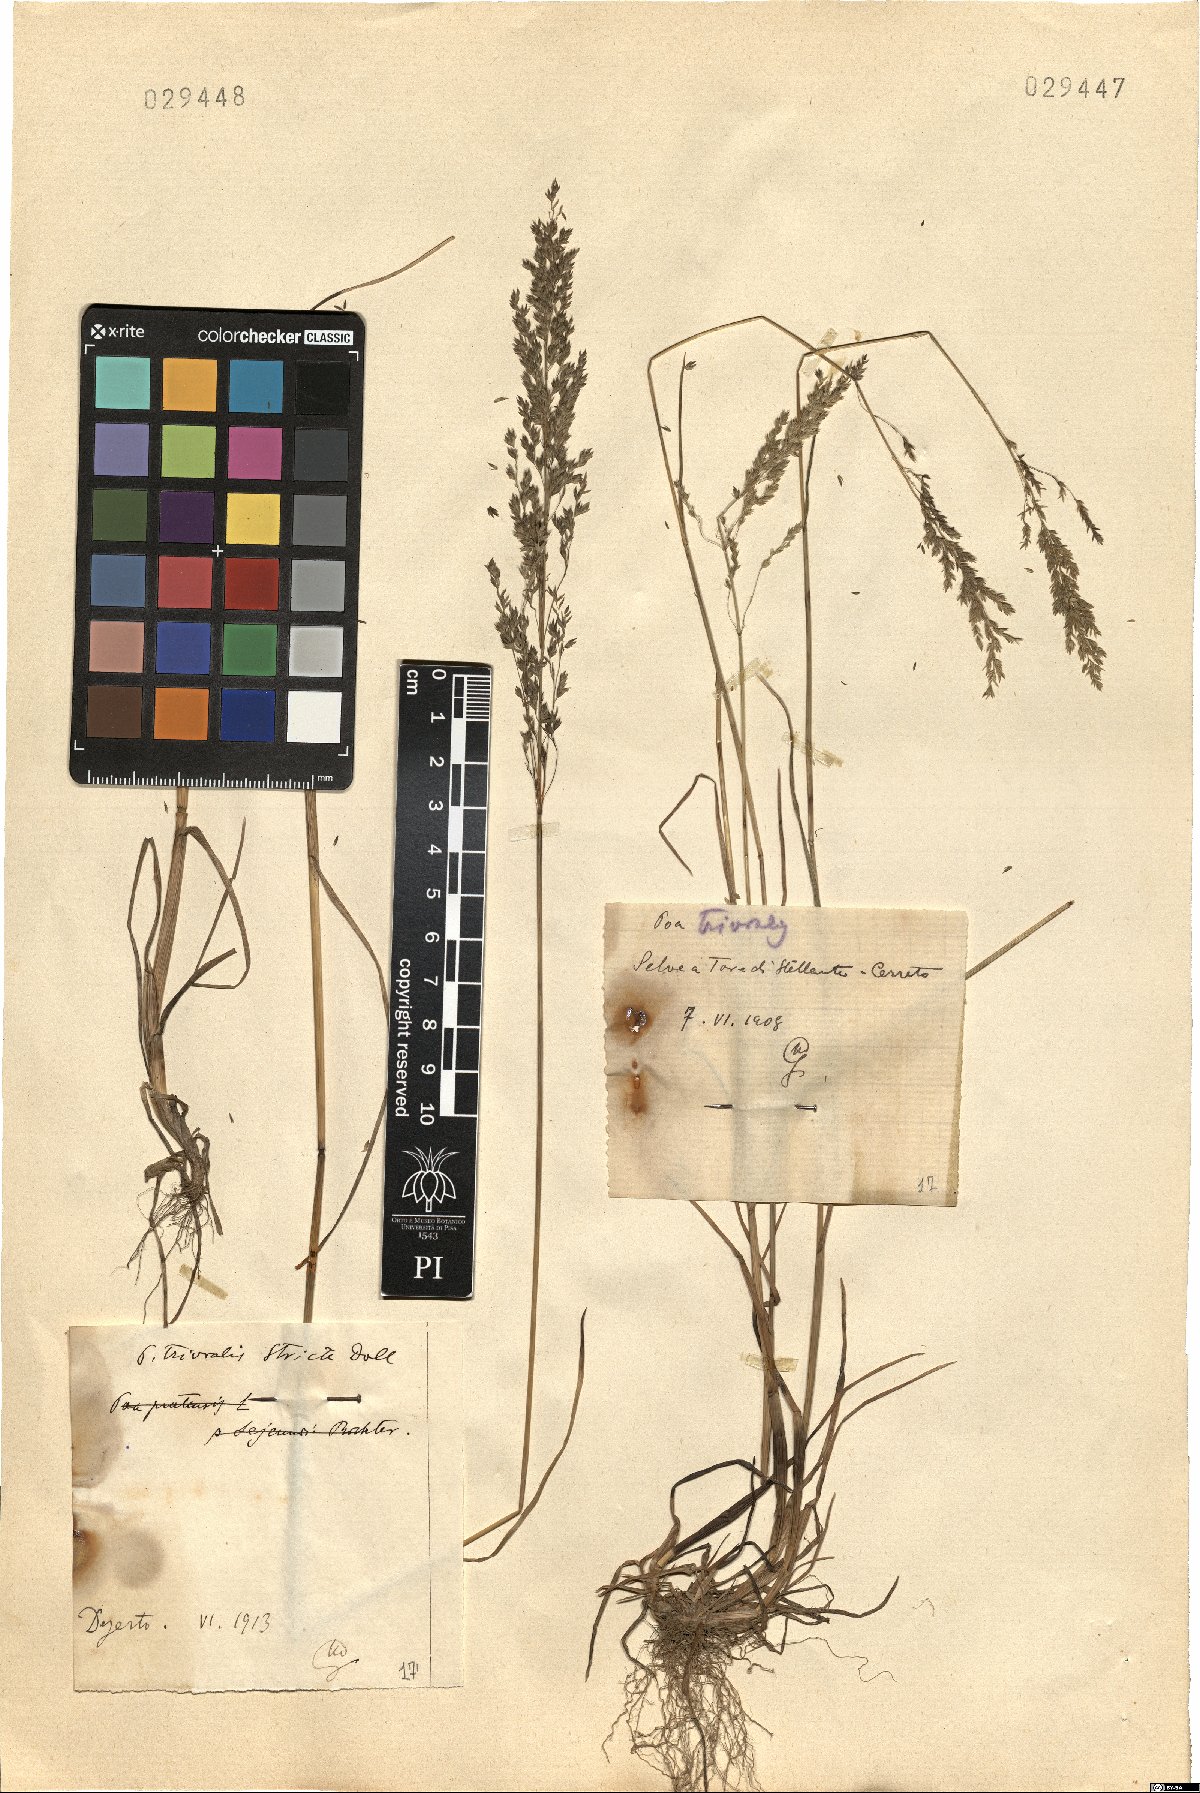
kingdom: Plantae
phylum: Tracheophyta
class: Liliopsida
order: Poales
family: Poaceae
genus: Poa
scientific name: Poa trivialis
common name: Rough bluegrass
